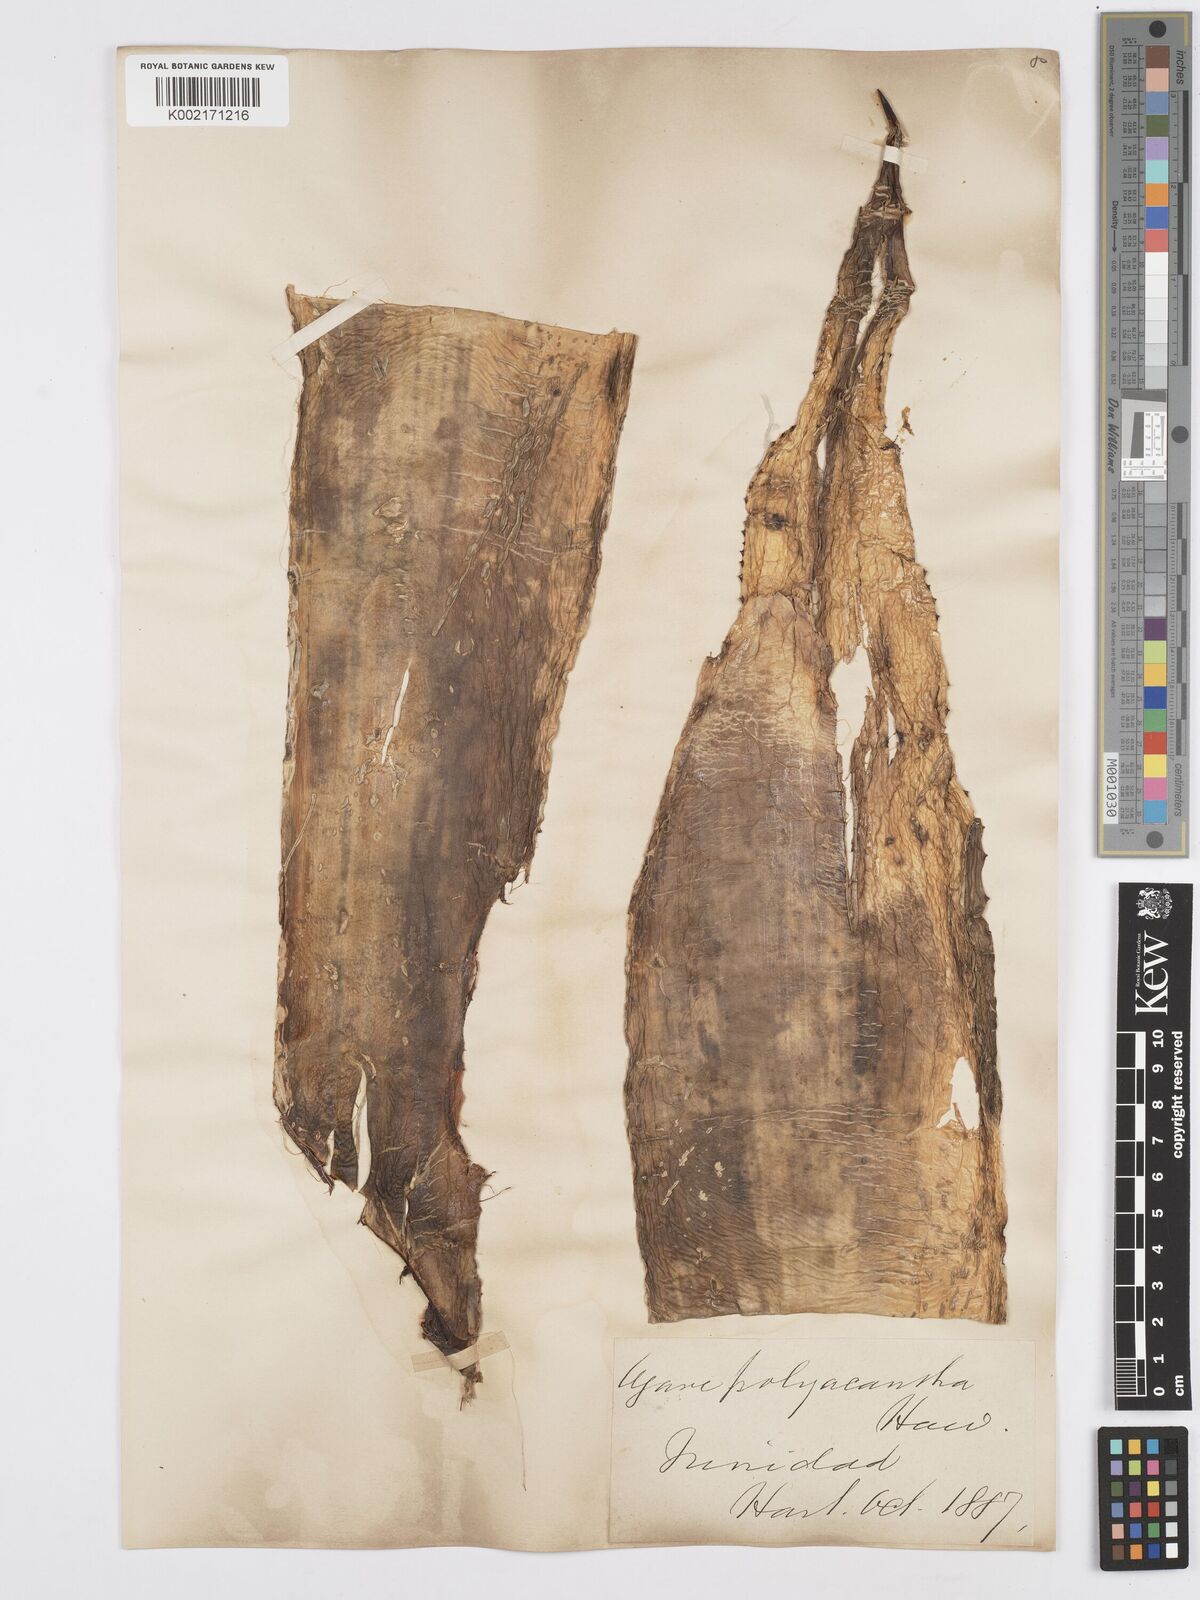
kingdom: Plantae
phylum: Tracheophyta
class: Liliopsida
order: Asparagales
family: Asparagaceae
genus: Agave
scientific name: Agave polyacantha
